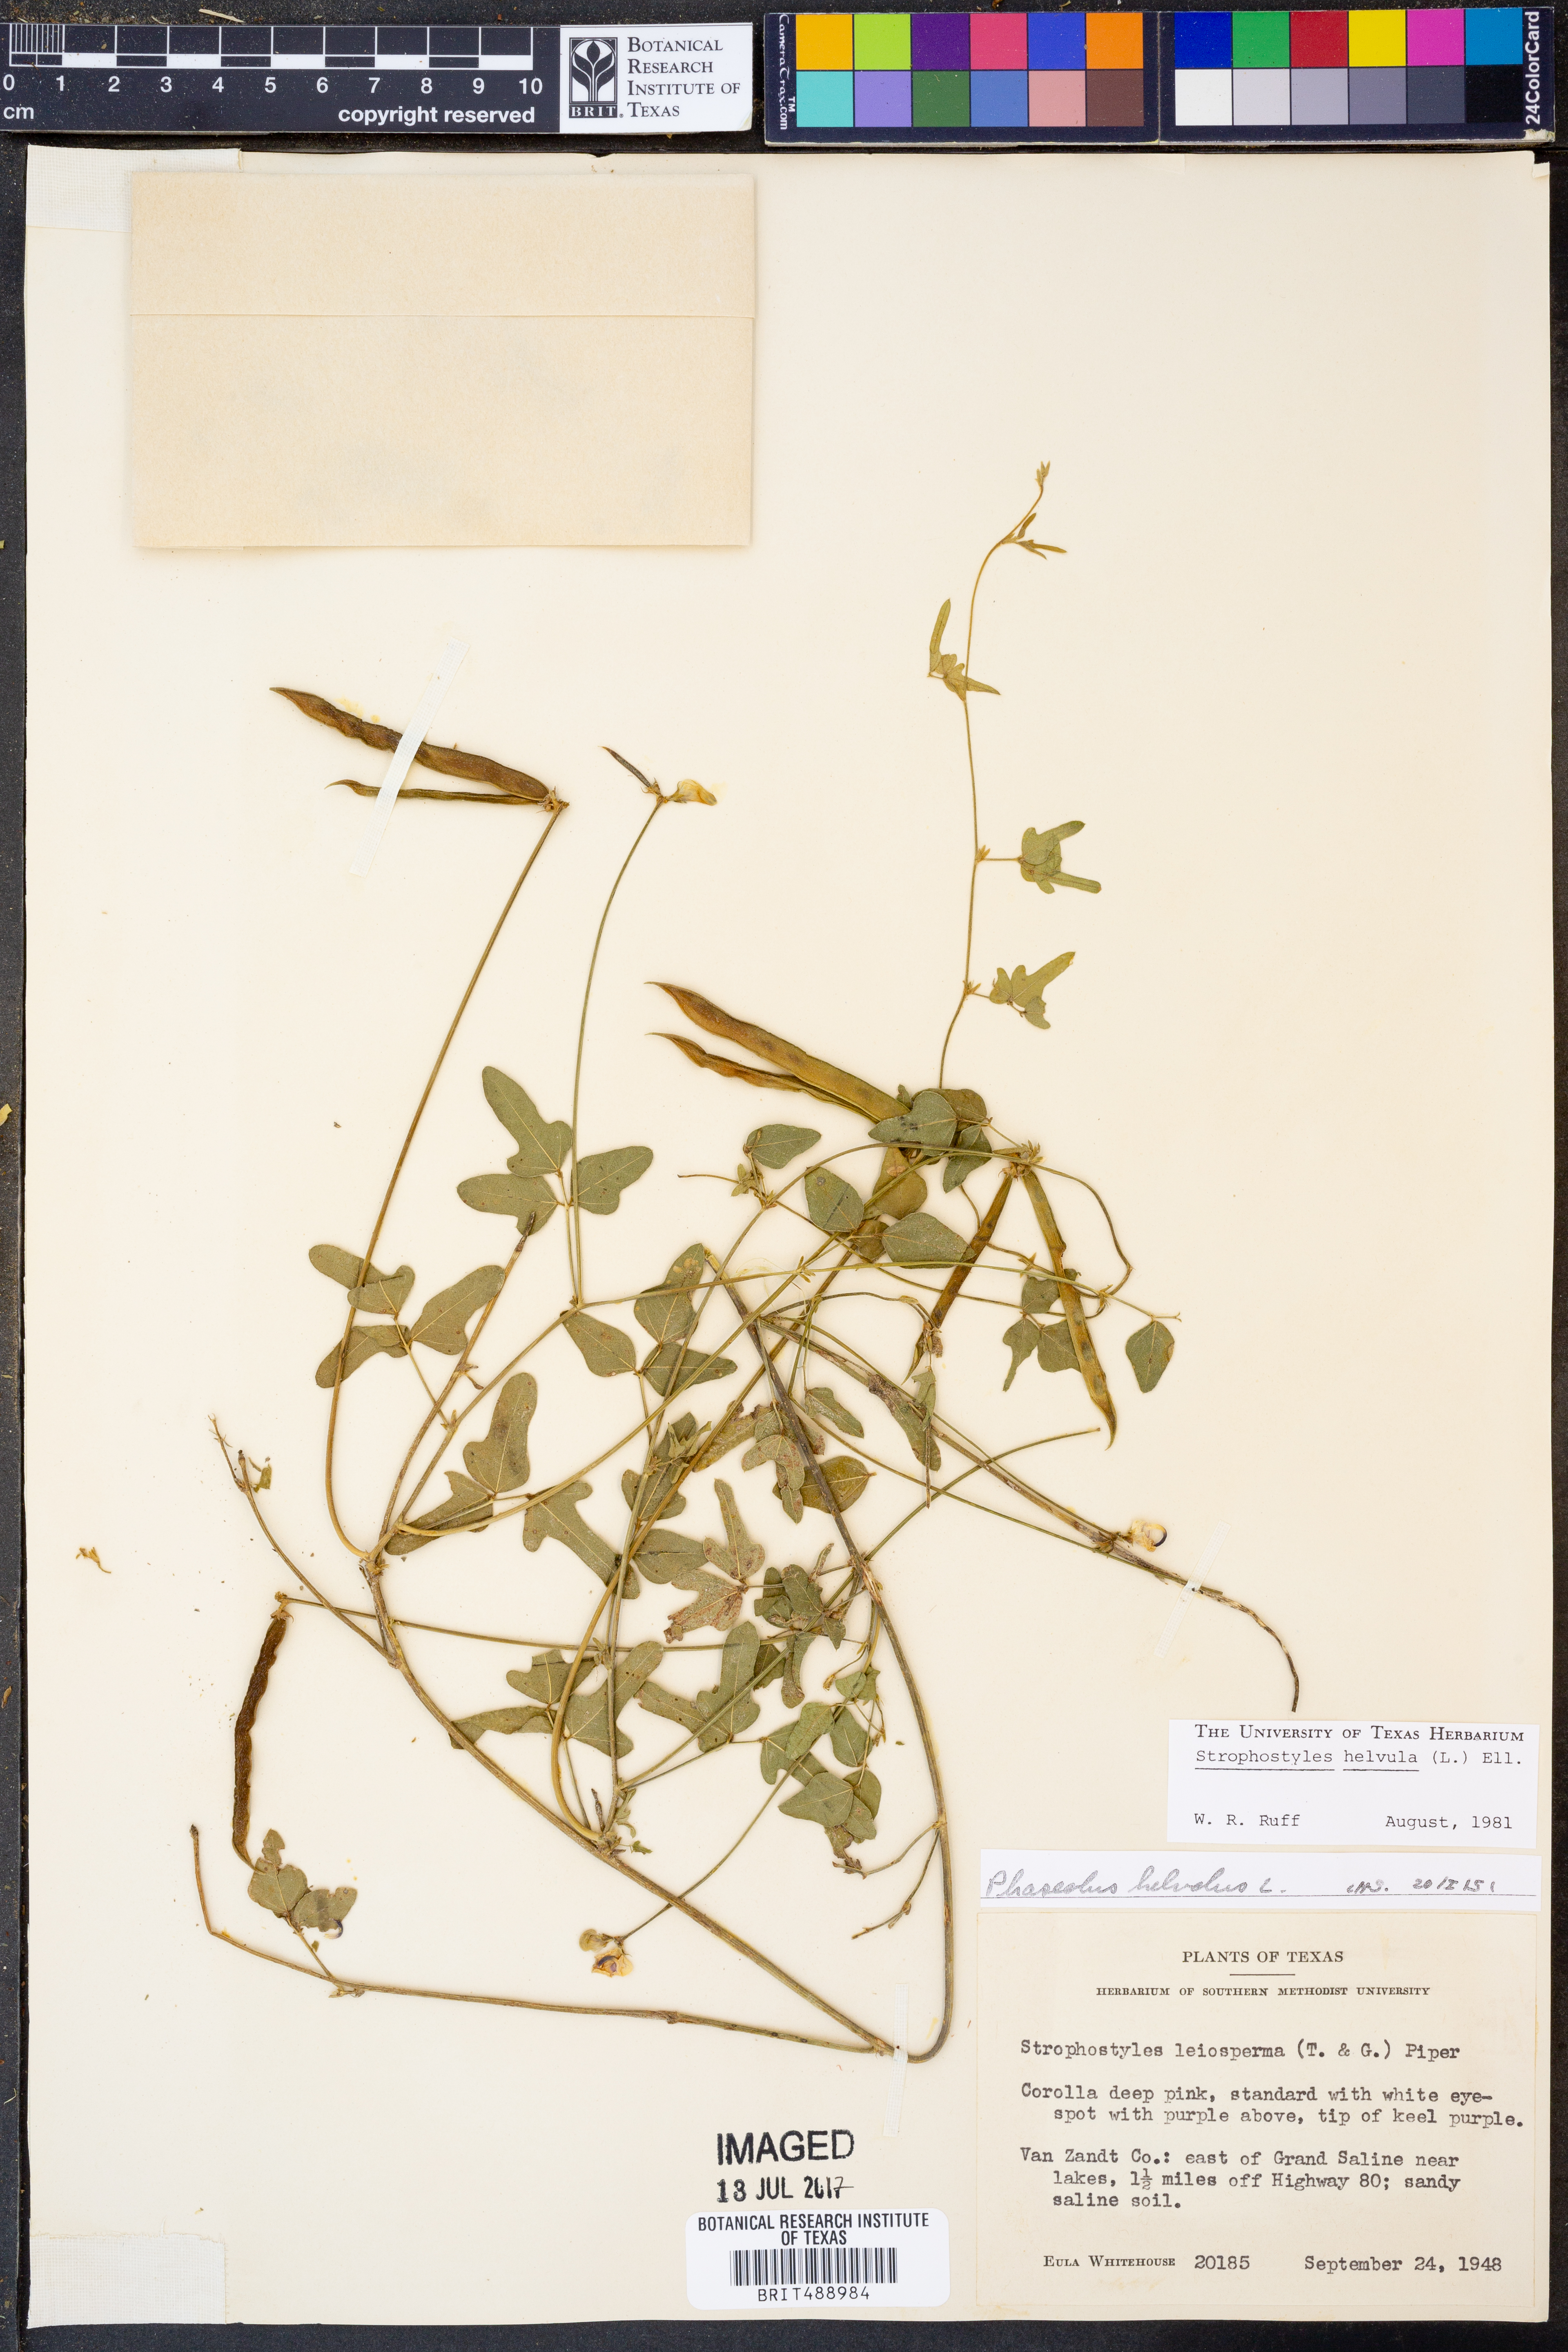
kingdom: Plantae
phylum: Tracheophyta
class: Magnoliopsida
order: Fabales
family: Fabaceae
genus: Strophostyles
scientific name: Strophostyles helvula
